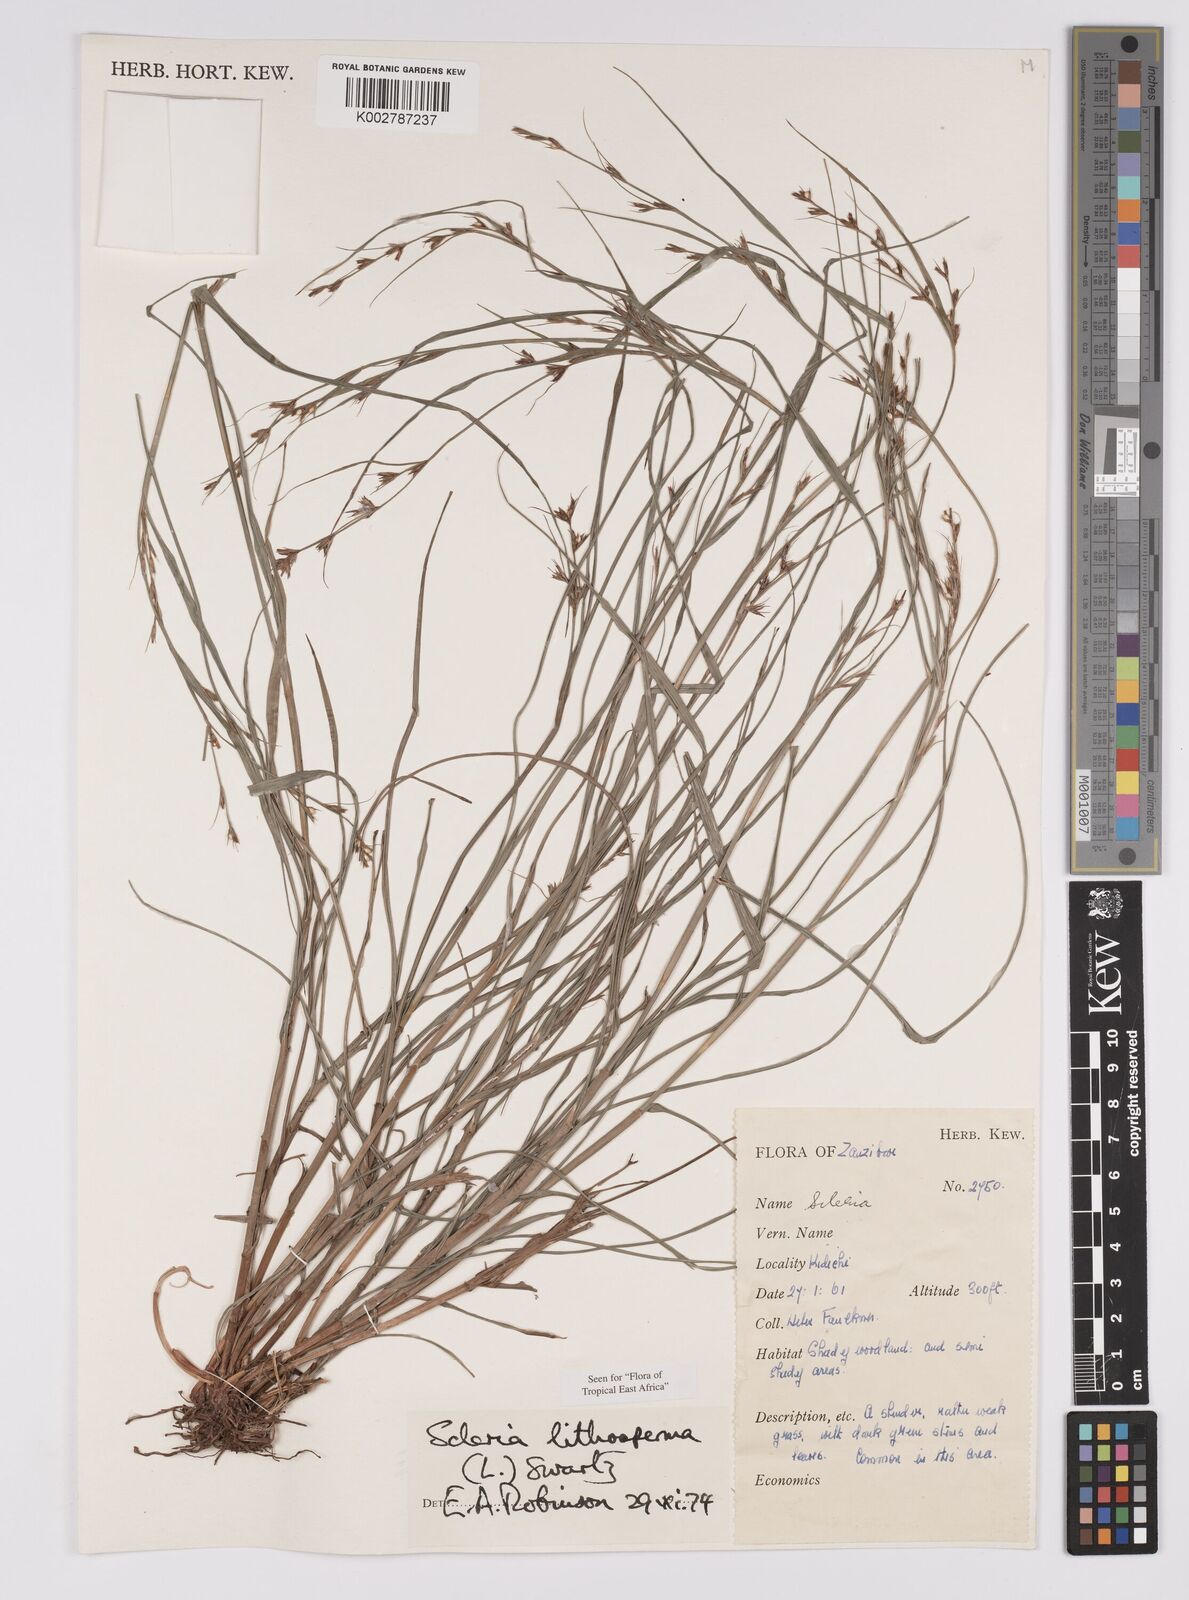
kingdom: Plantae
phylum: Tracheophyta
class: Liliopsida
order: Poales
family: Cyperaceae
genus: Scleria
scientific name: Scleria lithosperma
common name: Florida keys nut-rush
